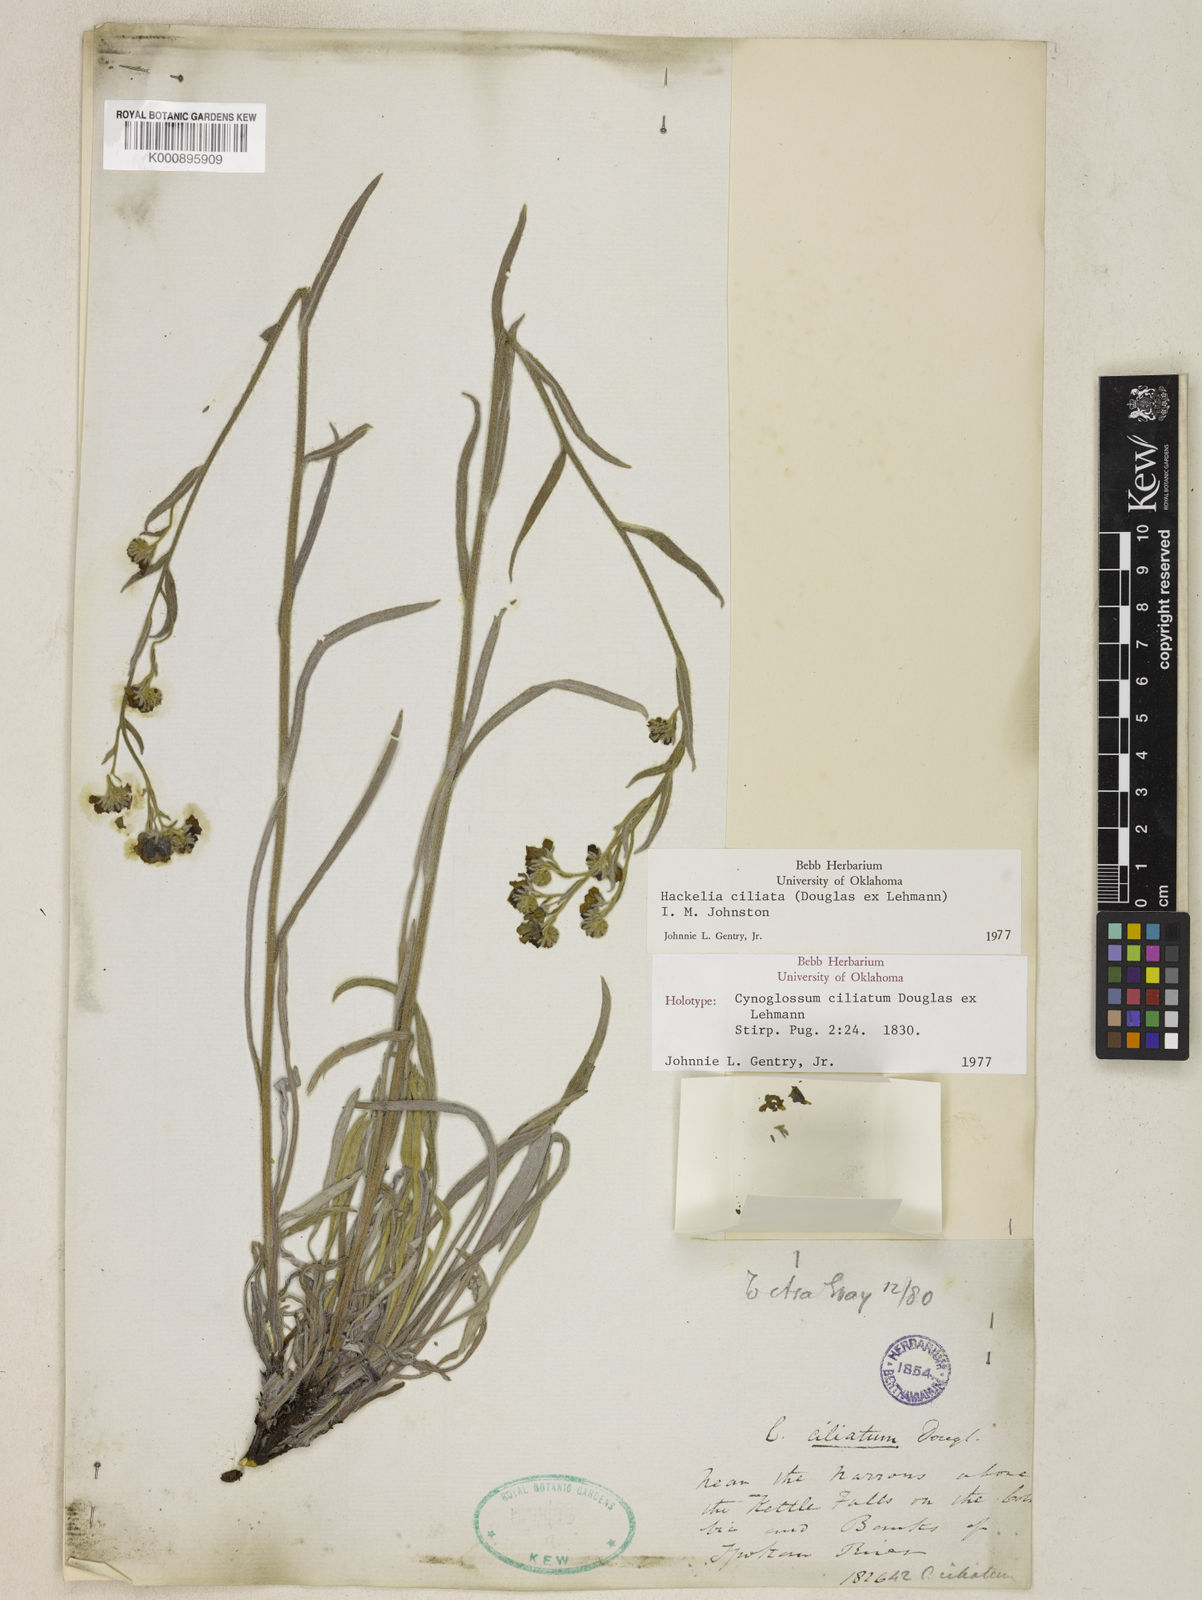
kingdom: Plantae
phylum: Tracheophyta
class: Magnoliopsida
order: Boraginales
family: Boraginaceae
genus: Hackelia
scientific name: Hackelia ciliata
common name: Okanagan stickseed
